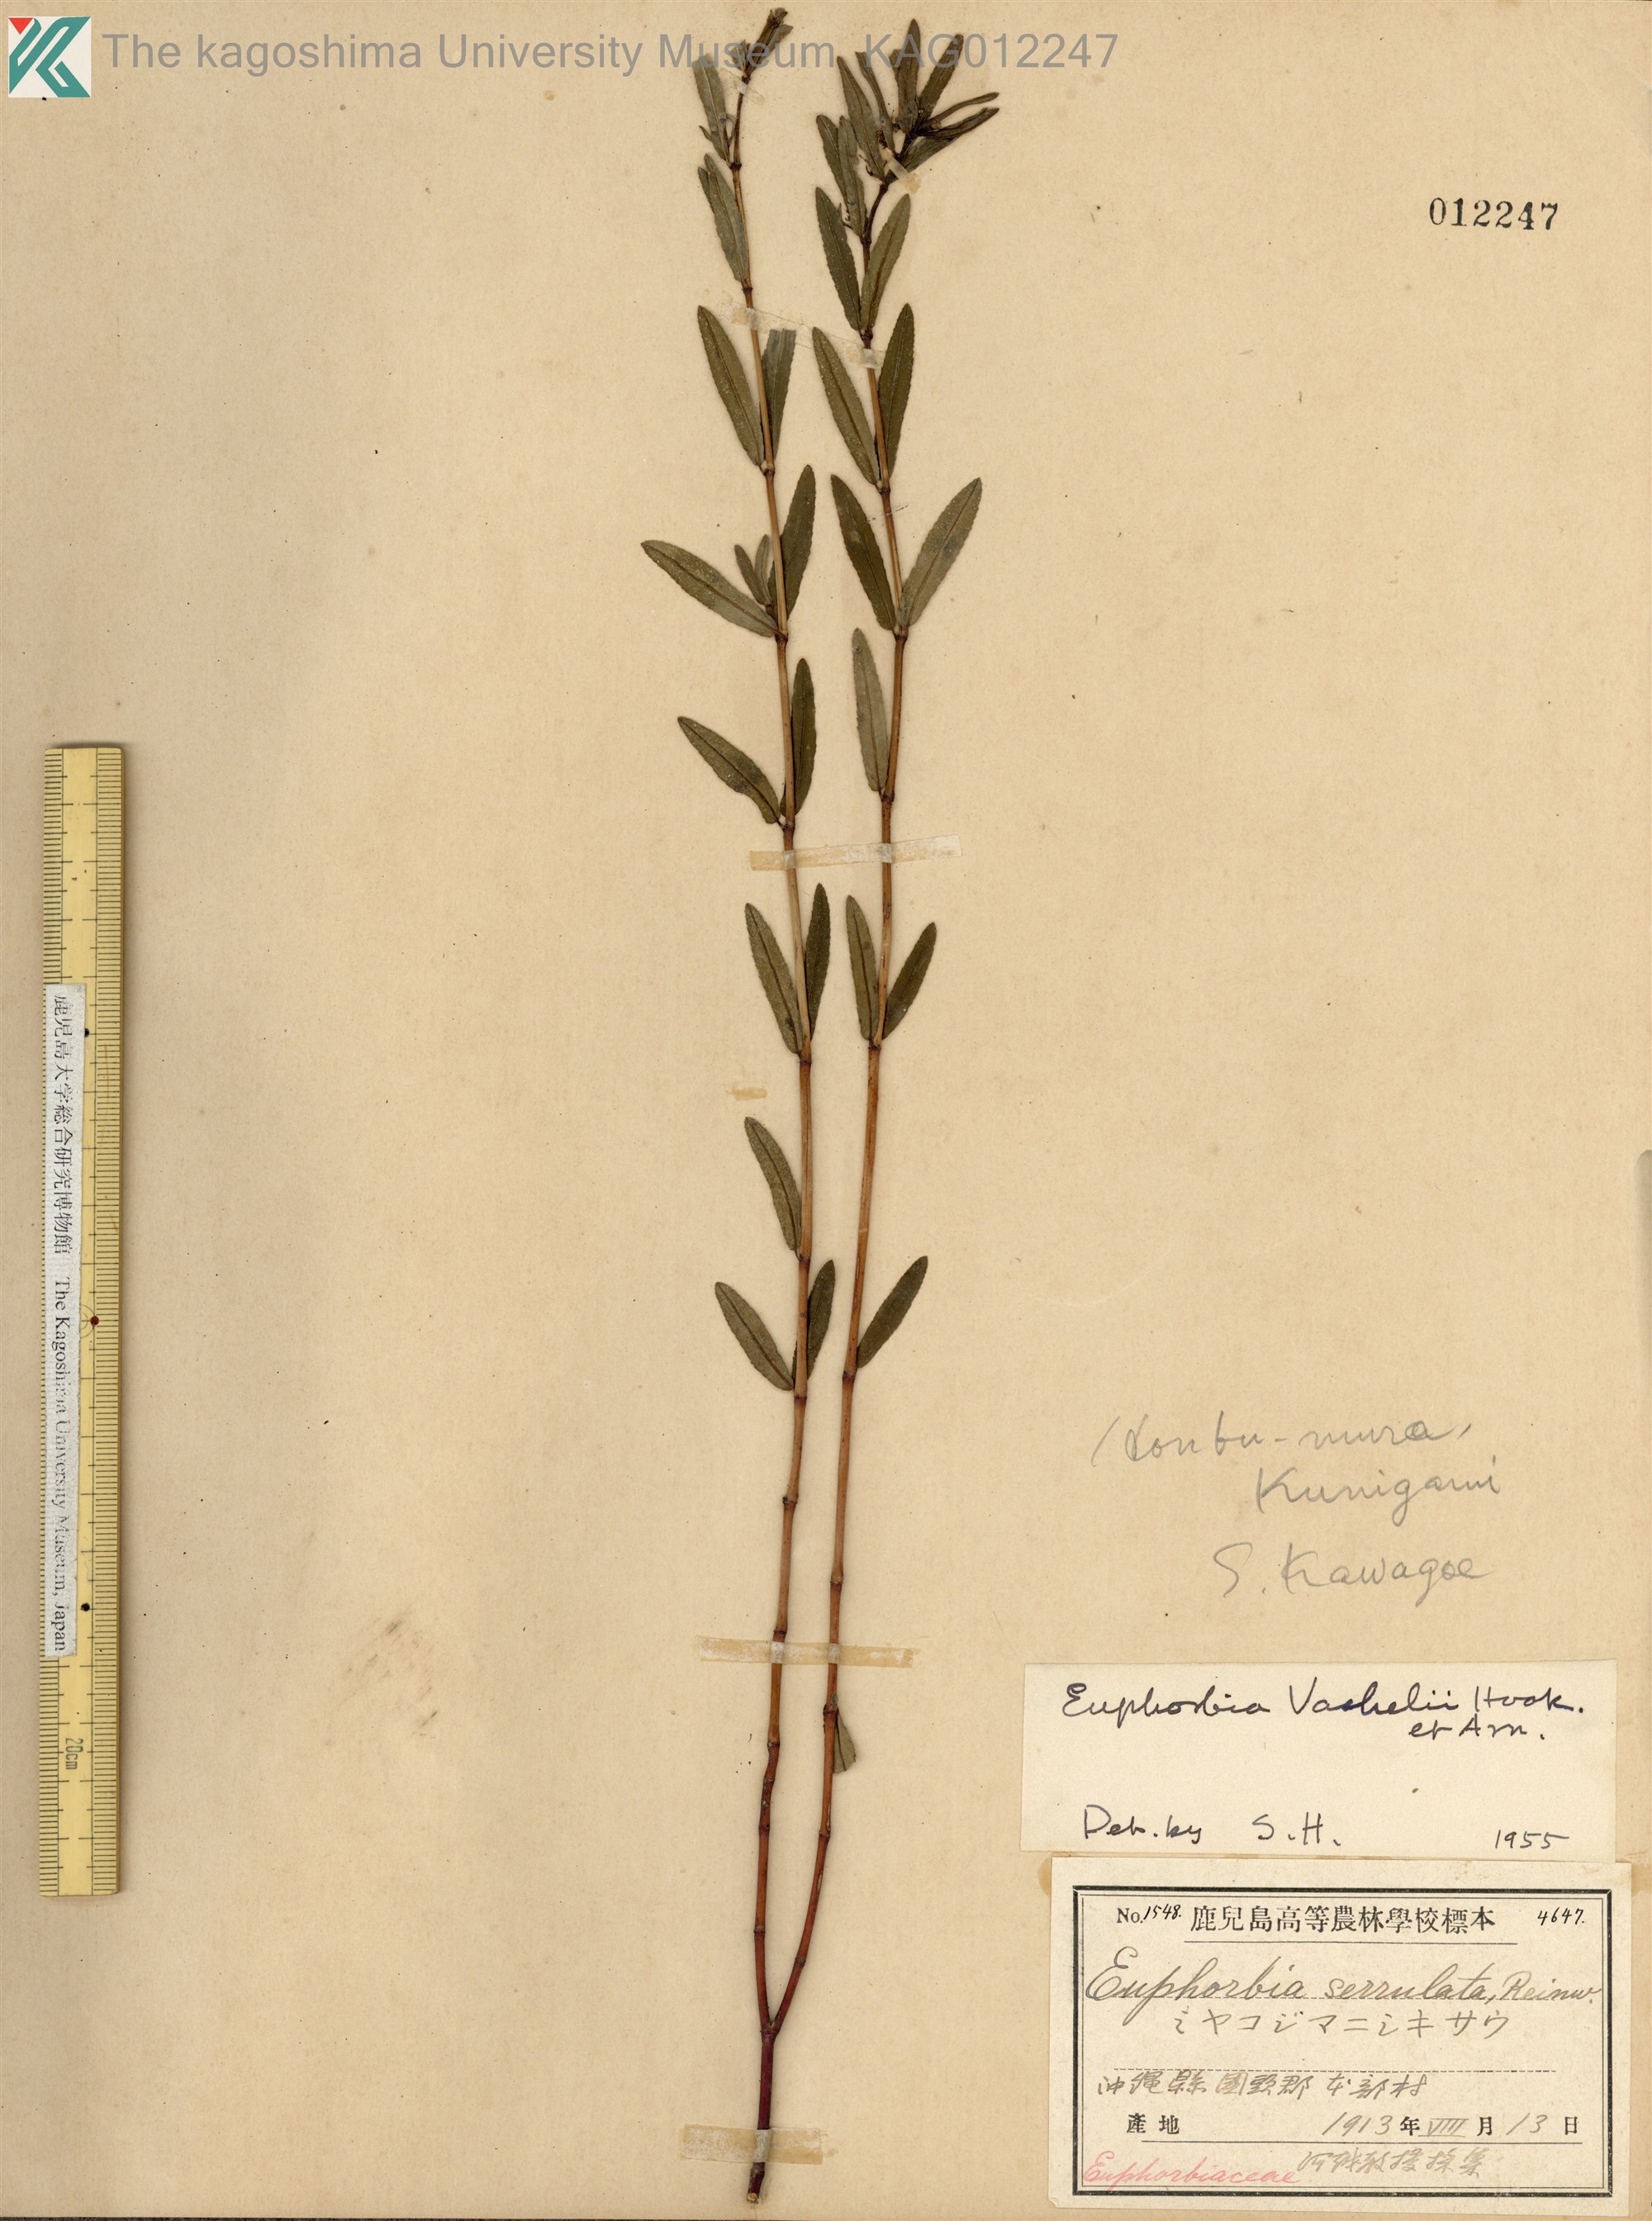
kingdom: Plantae
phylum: Tracheophyta
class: Magnoliopsida
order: Malpighiales
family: Euphorbiaceae
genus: Euphorbia
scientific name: Euphorbia bifida
